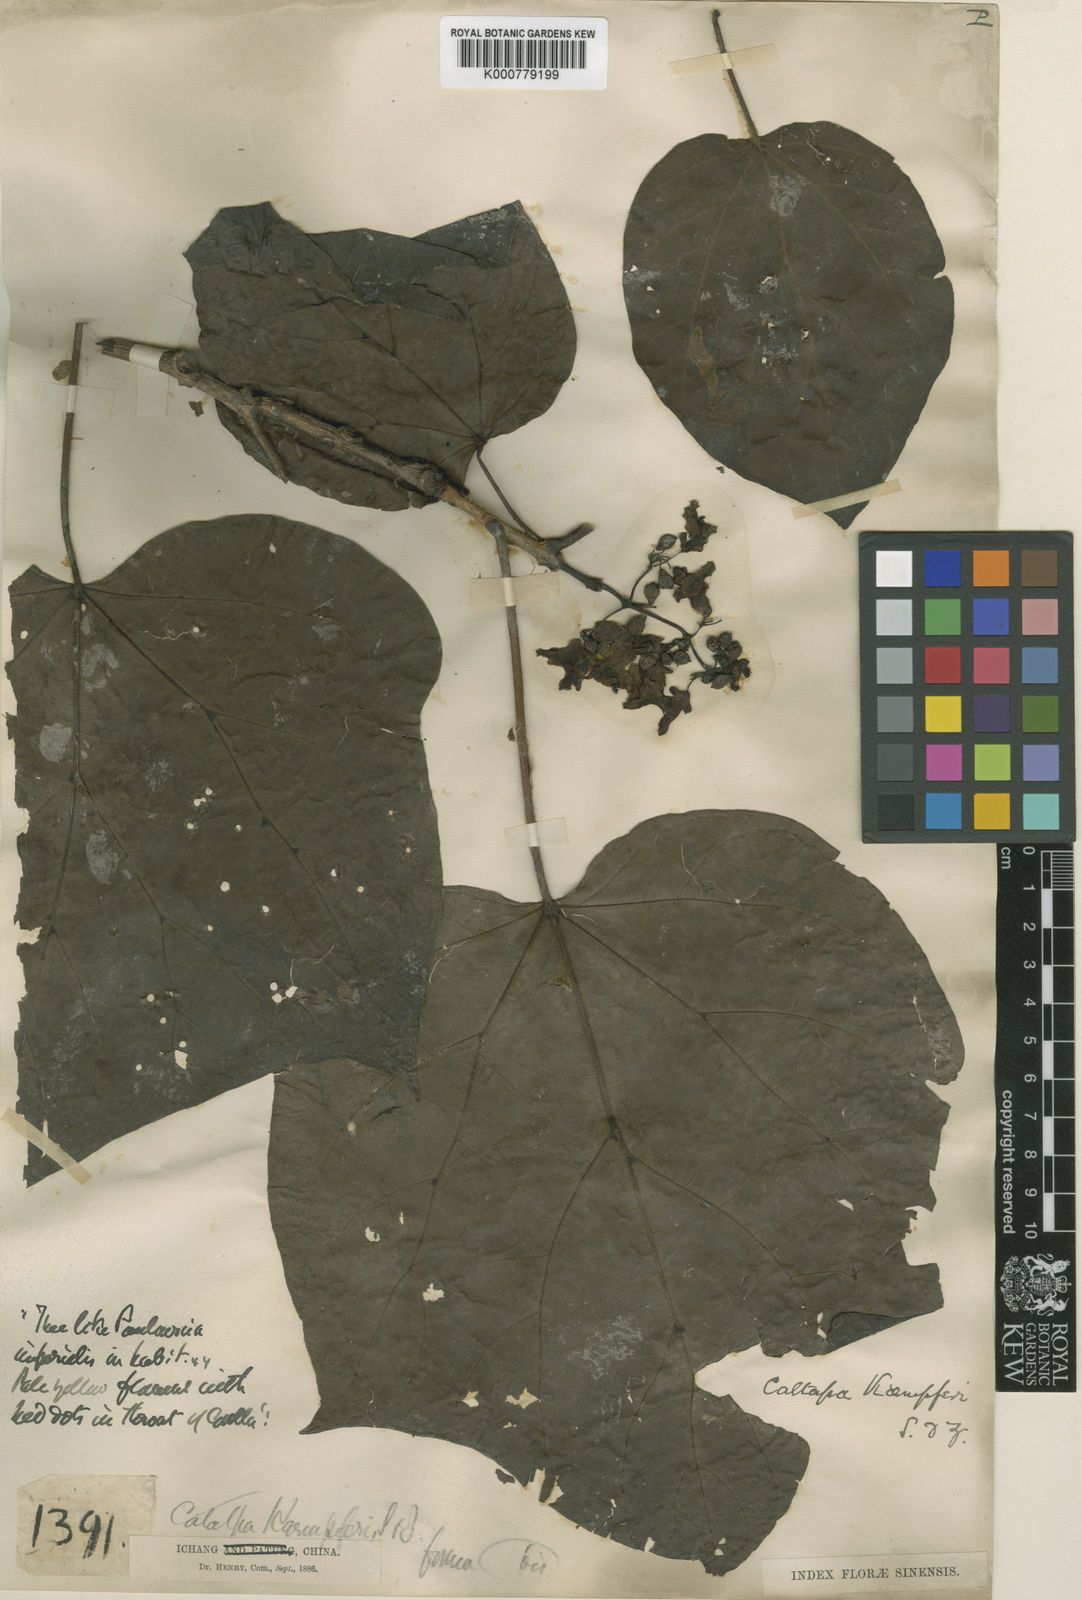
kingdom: Plantae
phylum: Tracheophyta
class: Magnoliopsida
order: Lamiales
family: Bignoniaceae
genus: Catalpa
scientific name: Catalpa ovata
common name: Chinese catalpa
